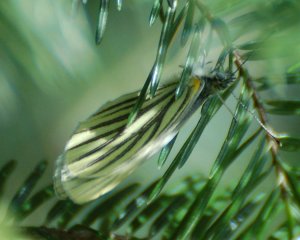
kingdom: Animalia
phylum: Arthropoda
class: Insecta
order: Lepidoptera
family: Pieridae
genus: Pieris
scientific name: Pieris oleracea
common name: Mustard White
